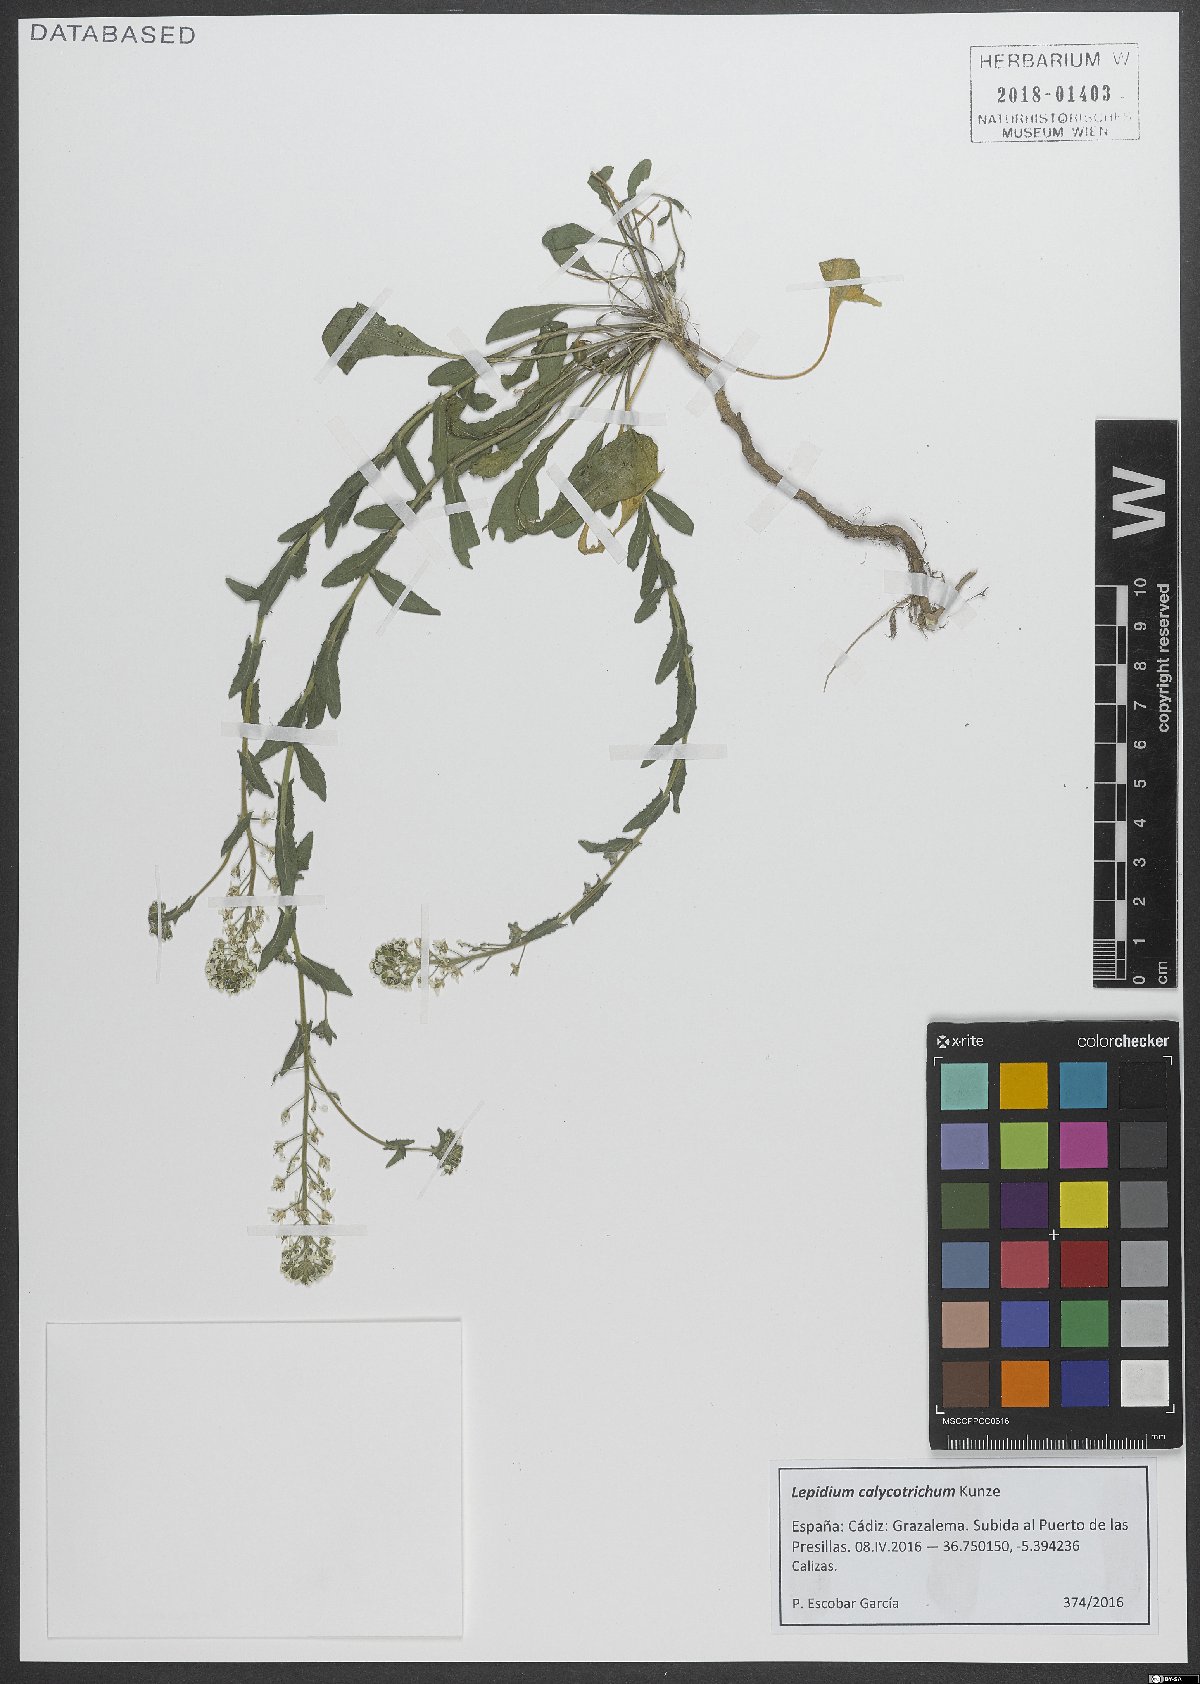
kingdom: Plantae
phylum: Tracheophyta
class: Magnoliopsida
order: Brassicales
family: Brassicaceae
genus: Lepidium
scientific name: Lepidium hirtum
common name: Mediterranean pepperweed
